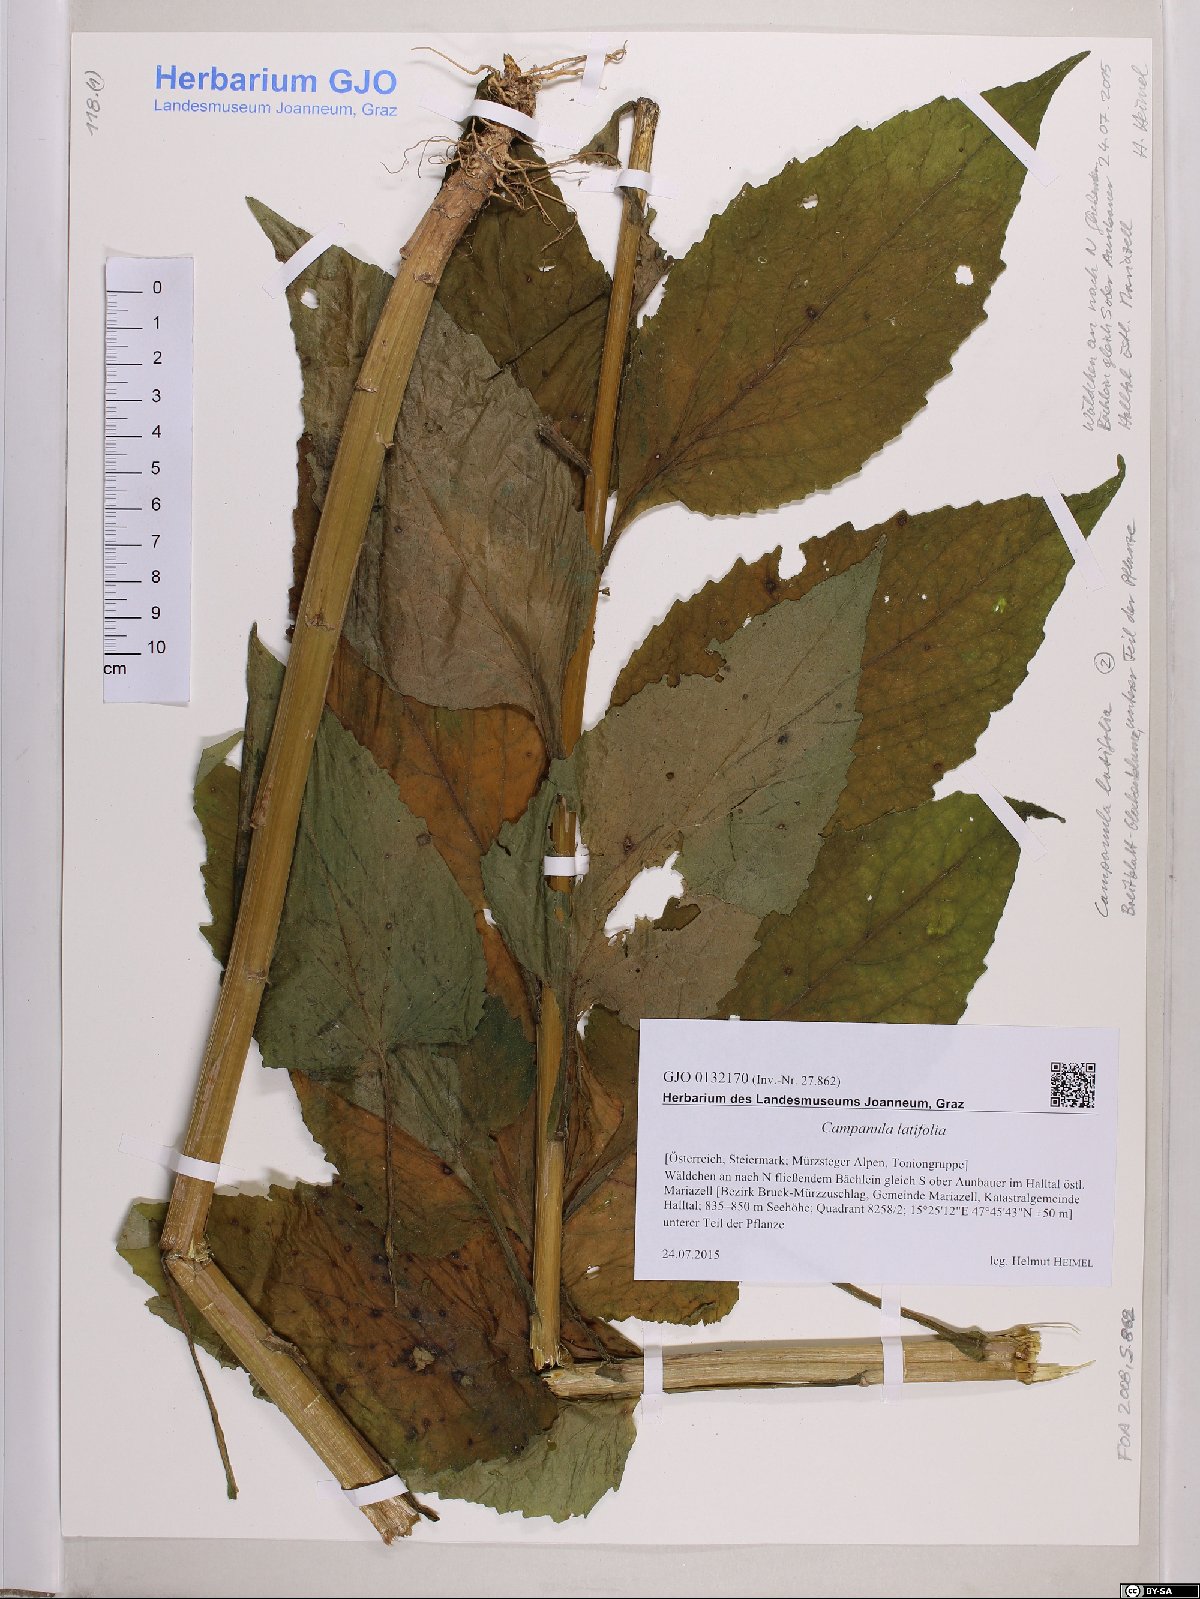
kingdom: Plantae
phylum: Tracheophyta
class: Magnoliopsida
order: Asterales
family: Campanulaceae
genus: Campanula
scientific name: Campanula latifolia
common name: Giant bellflower
